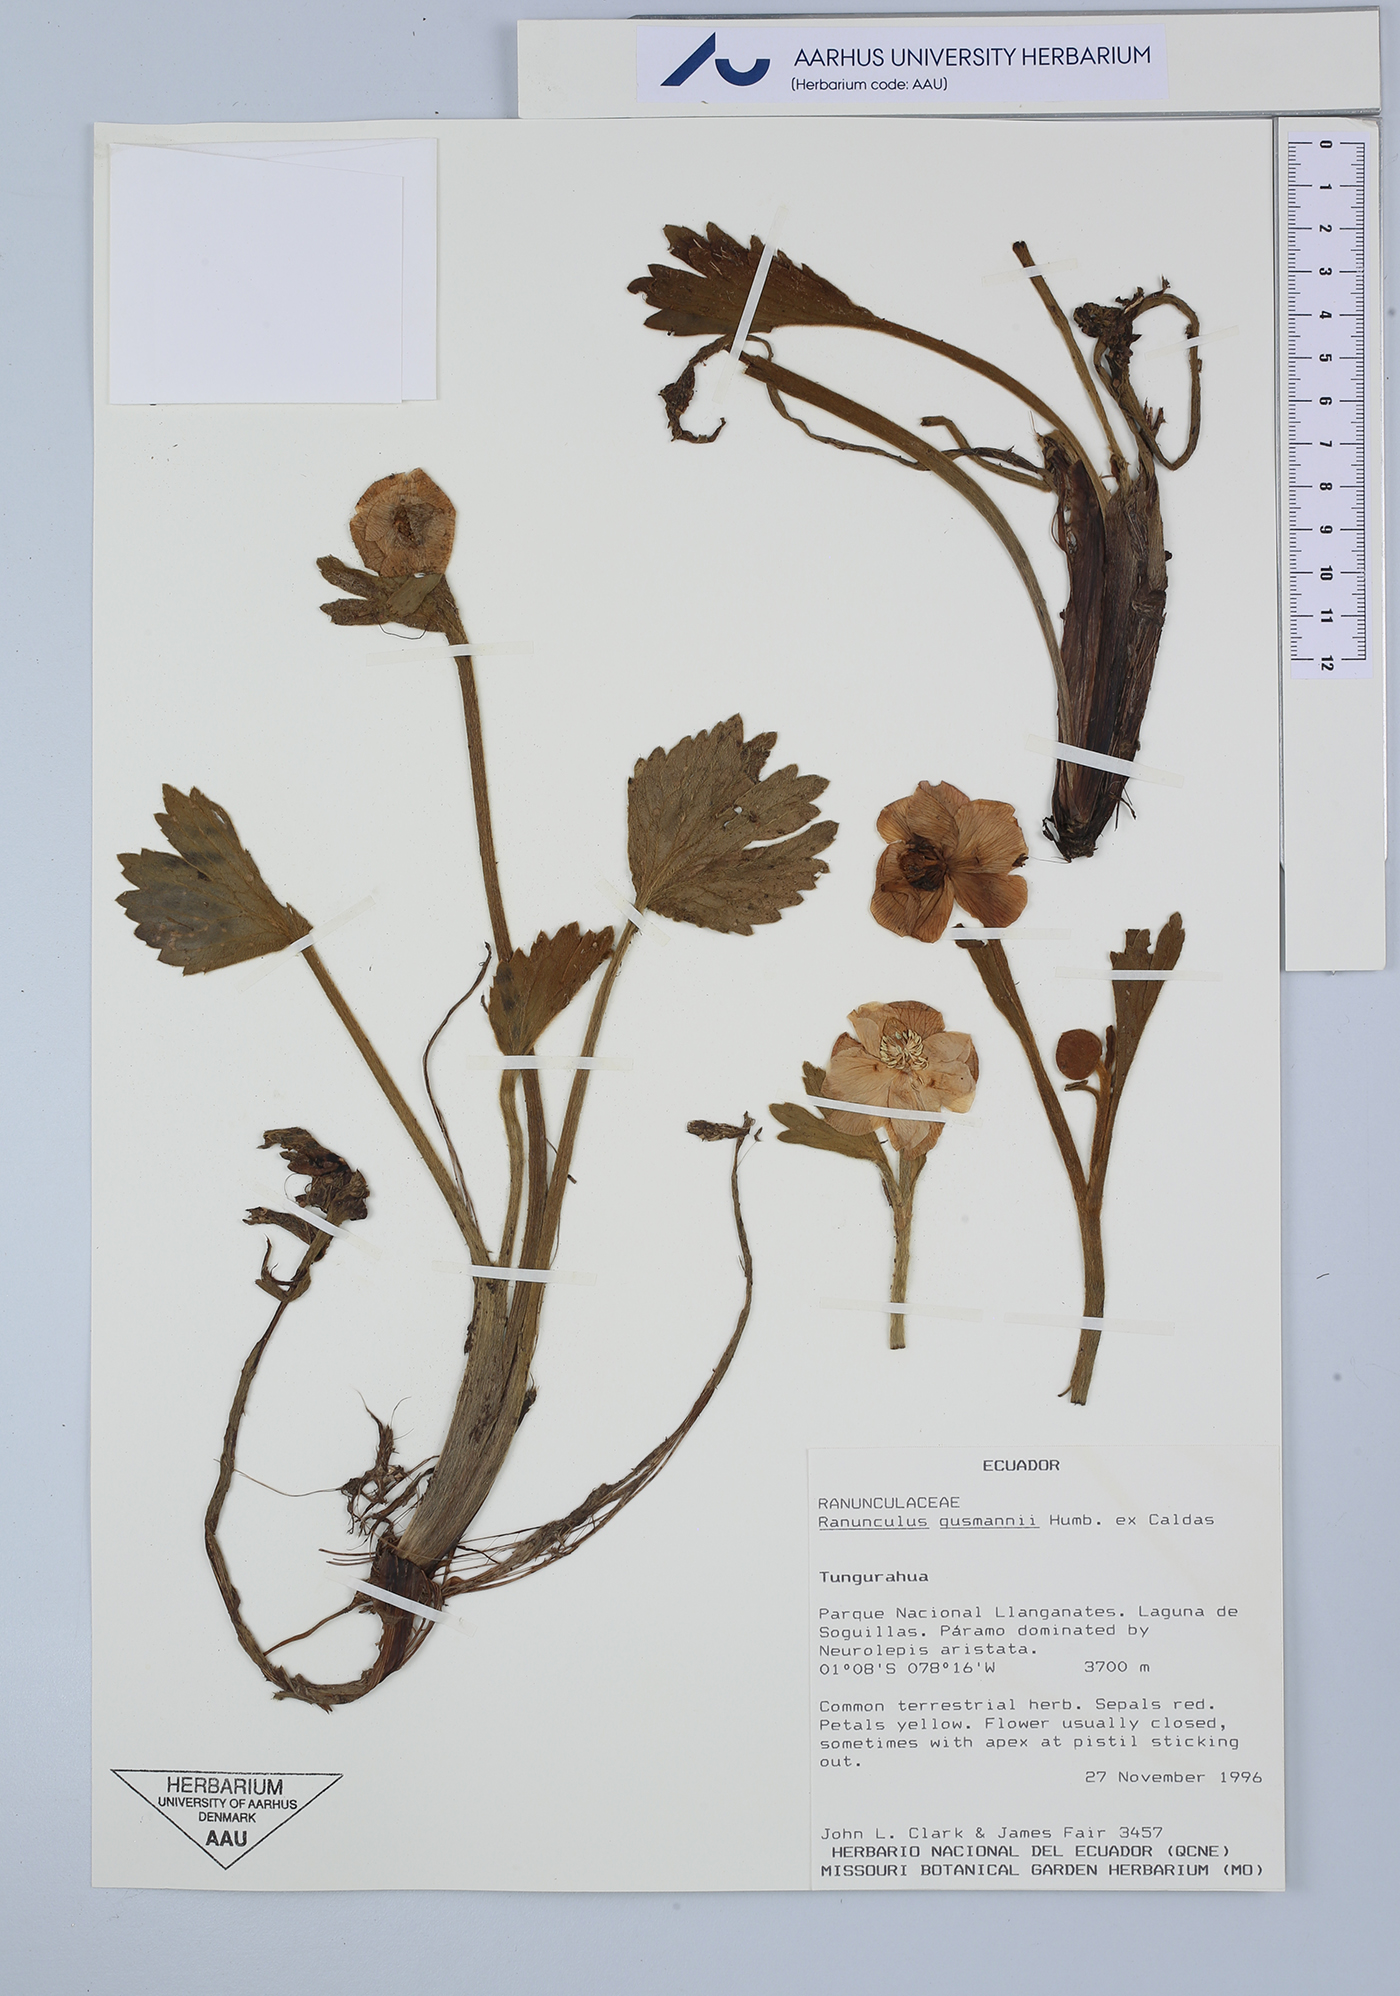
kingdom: Plantae
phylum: Tracheophyta
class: Magnoliopsida
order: Ranunculales
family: Ranunculaceae
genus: Krapfia
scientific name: Krapfia ranunculina
